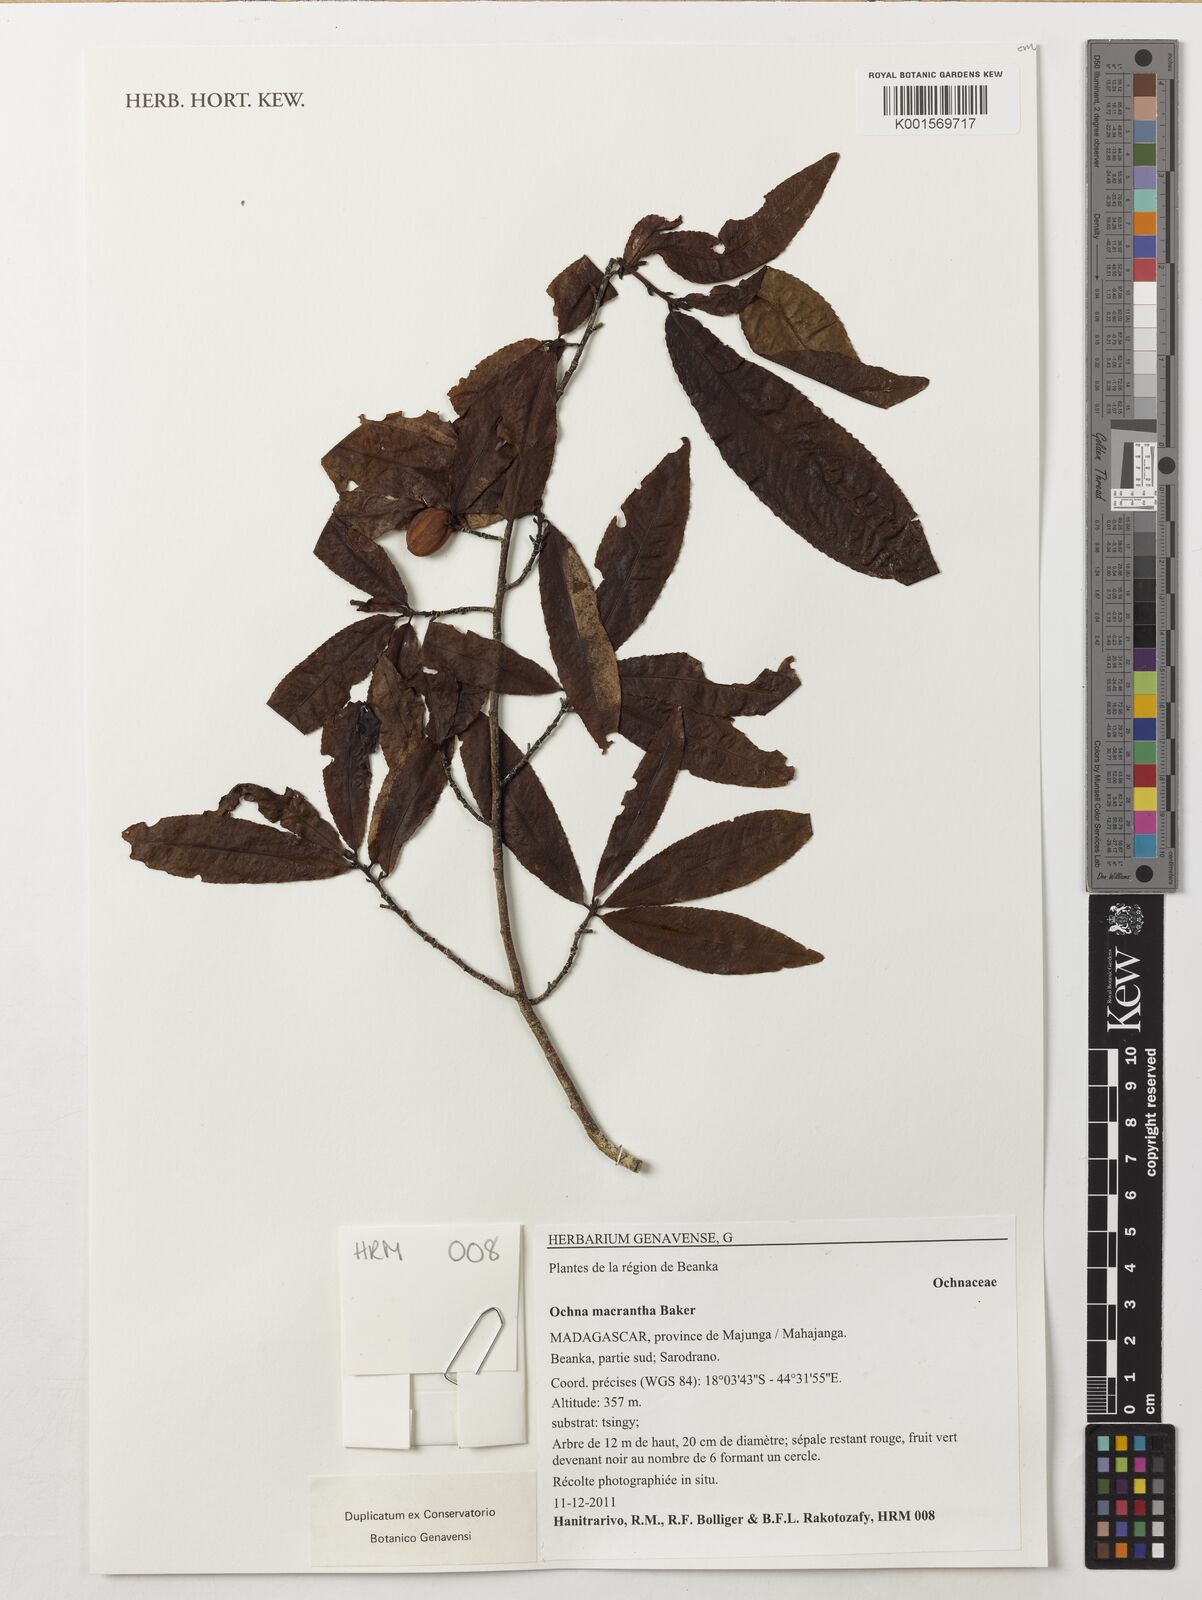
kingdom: Plantae
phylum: Tracheophyta
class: Magnoliopsida
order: Malpighiales
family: Ochnaceae
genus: Ochna
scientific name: Ochna macrantha
